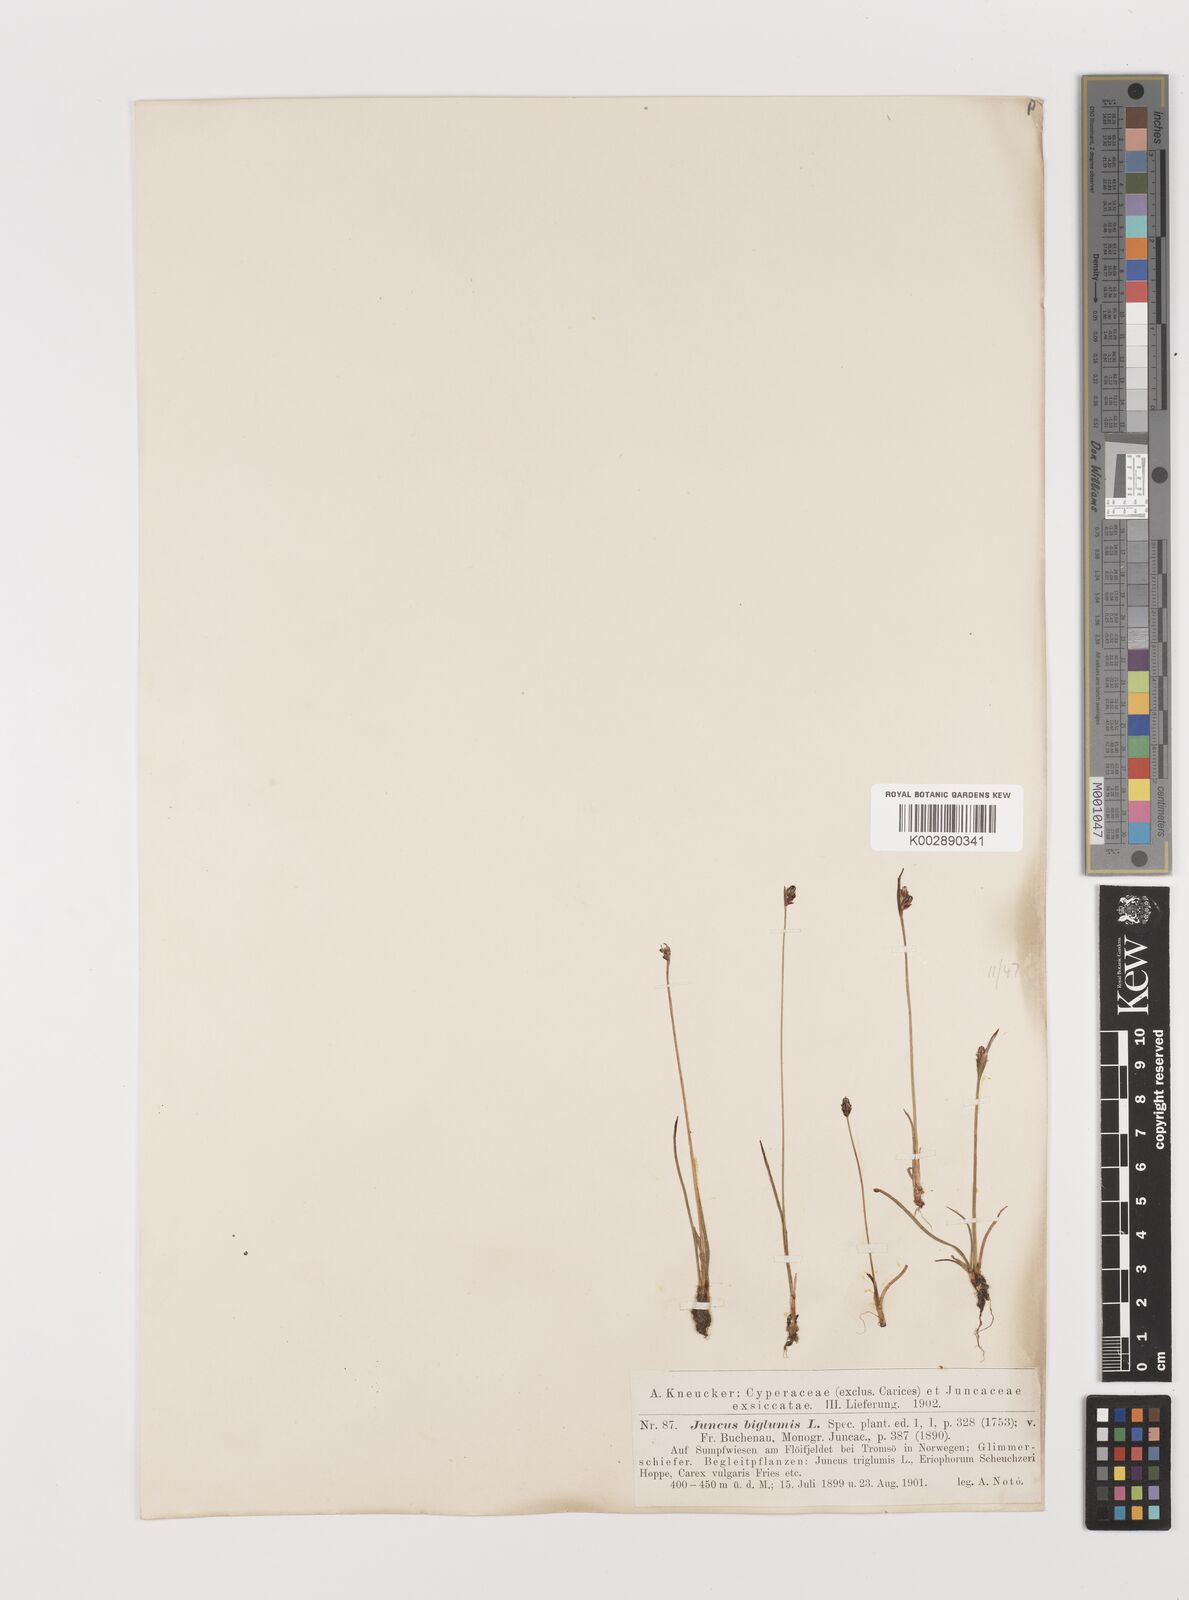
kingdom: Plantae
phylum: Tracheophyta
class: Liliopsida
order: Poales
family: Juncaceae
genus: Juncus
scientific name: Juncus biglumis
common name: Two-flowered rush
